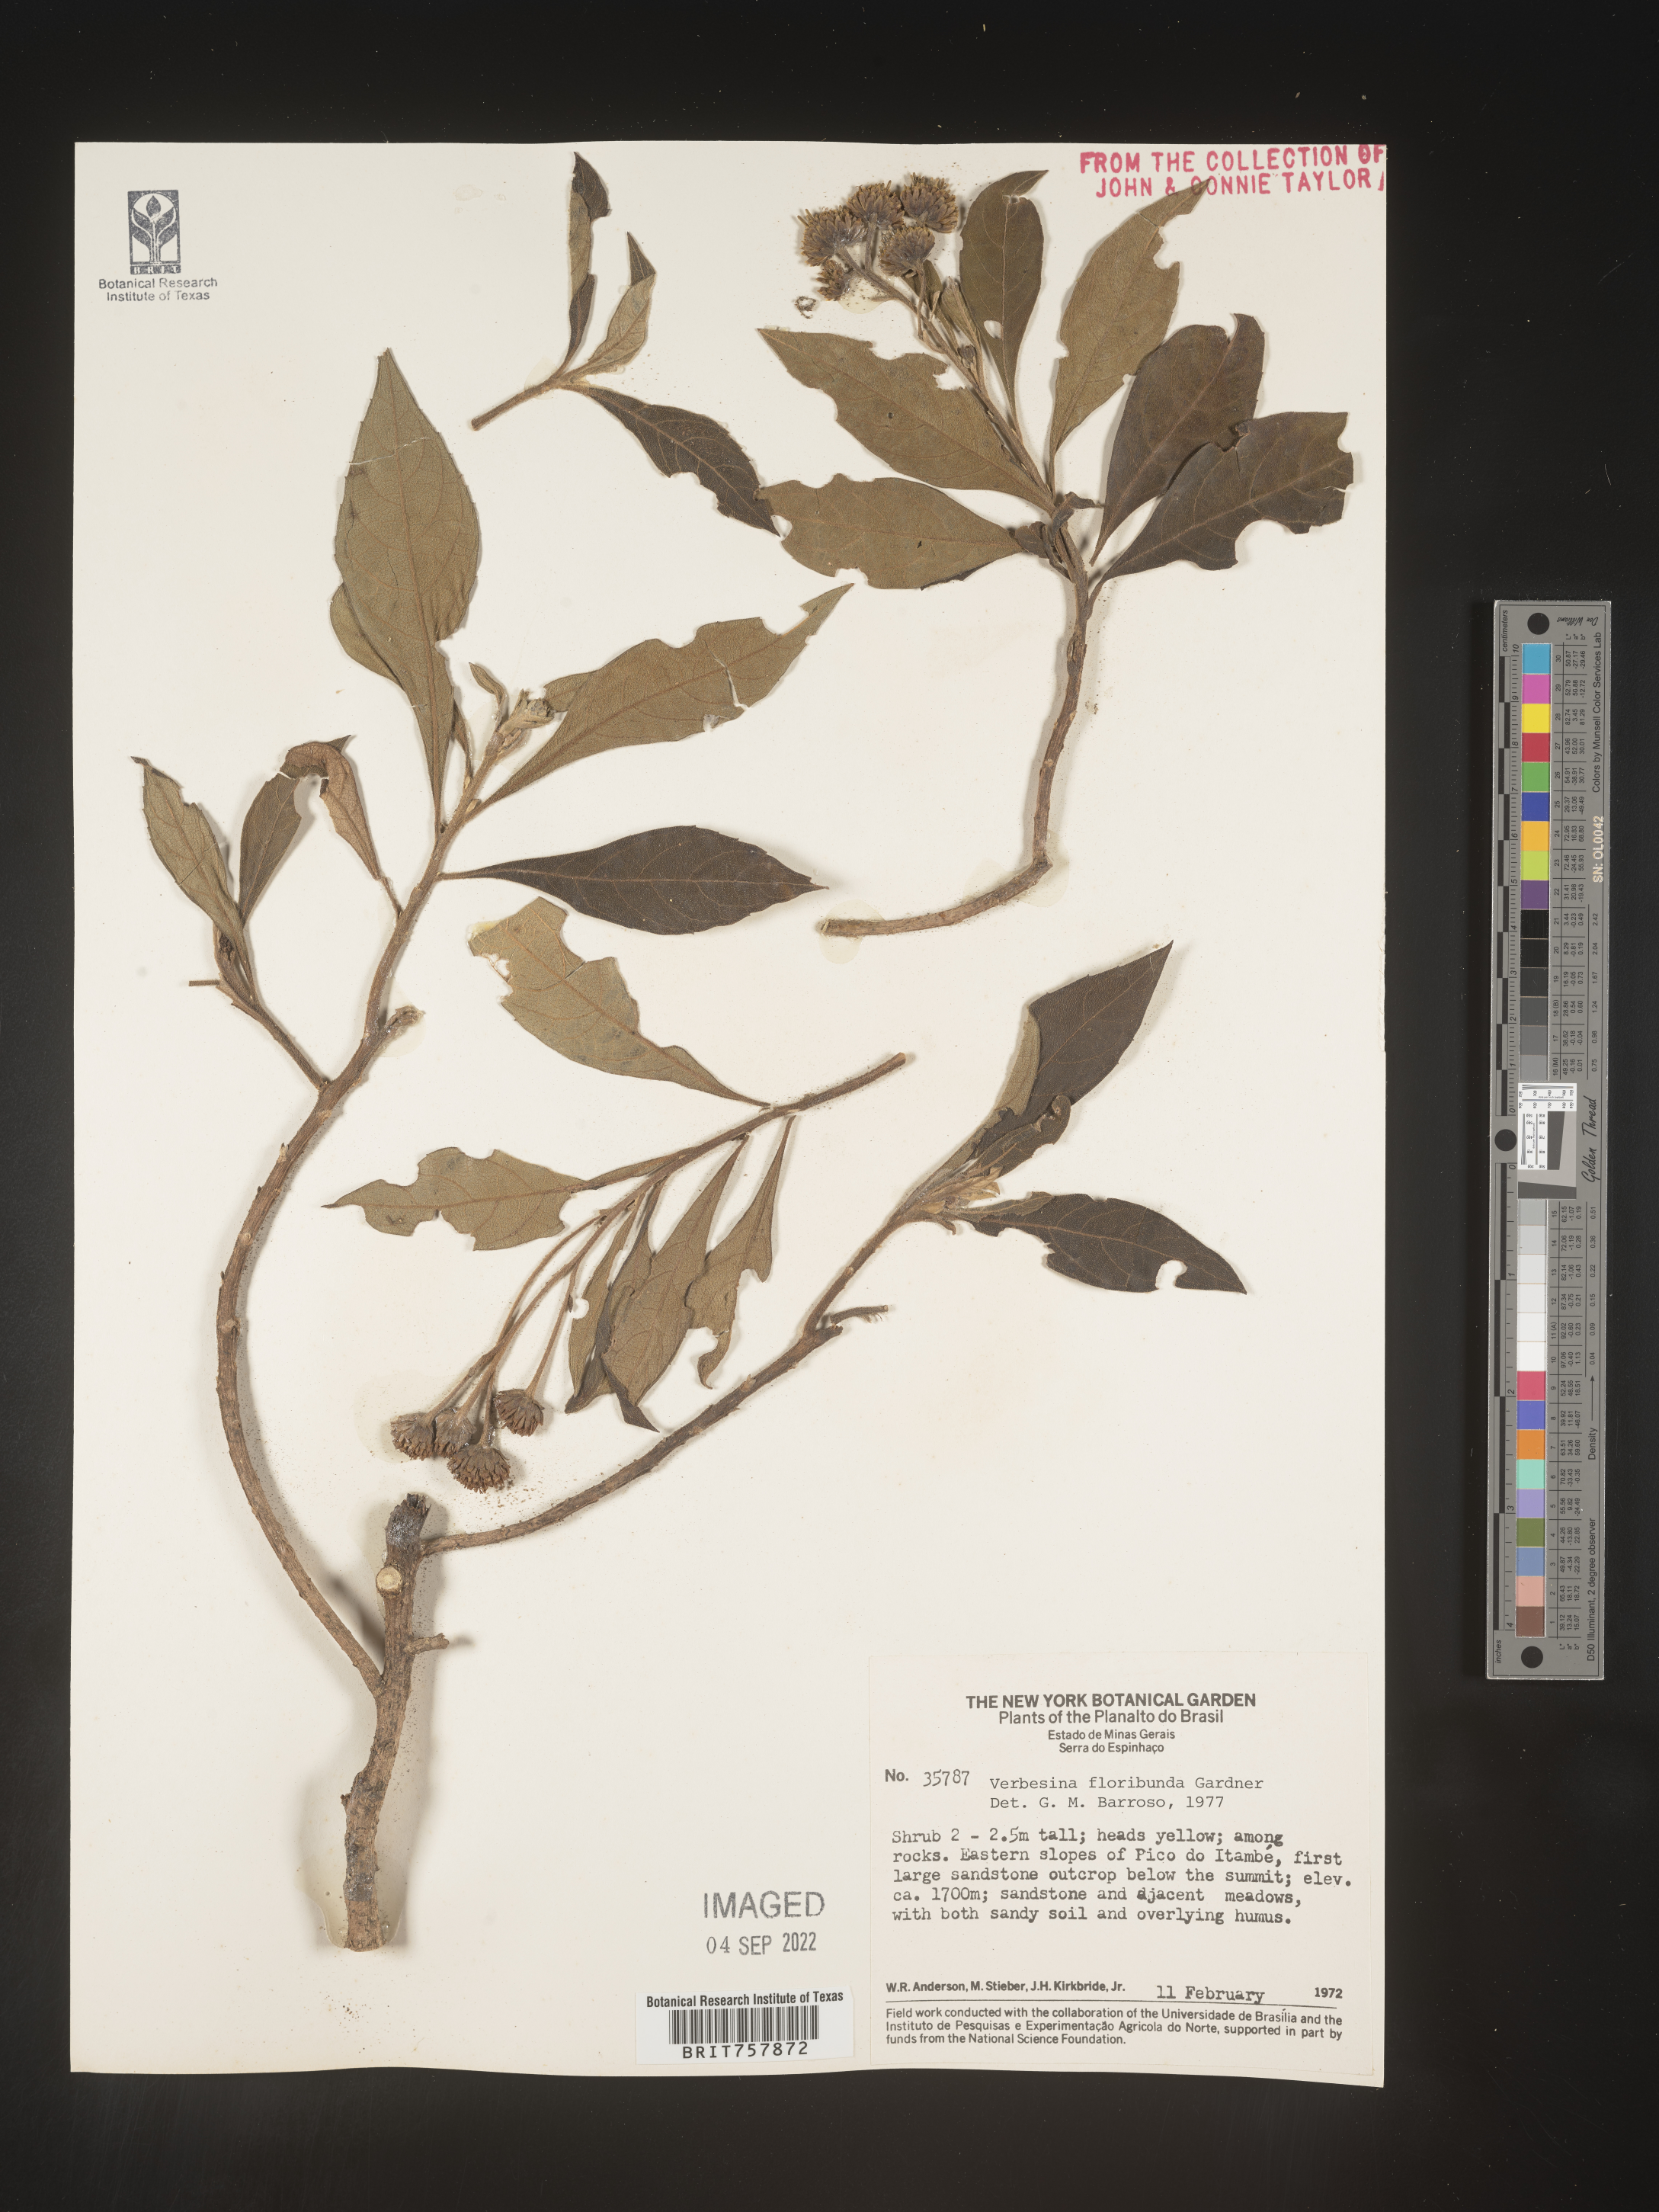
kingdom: Plantae
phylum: Tracheophyta
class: Magnoliopsida
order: Asterales
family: Asteraceae
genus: Verbesina
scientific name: Verbesina
